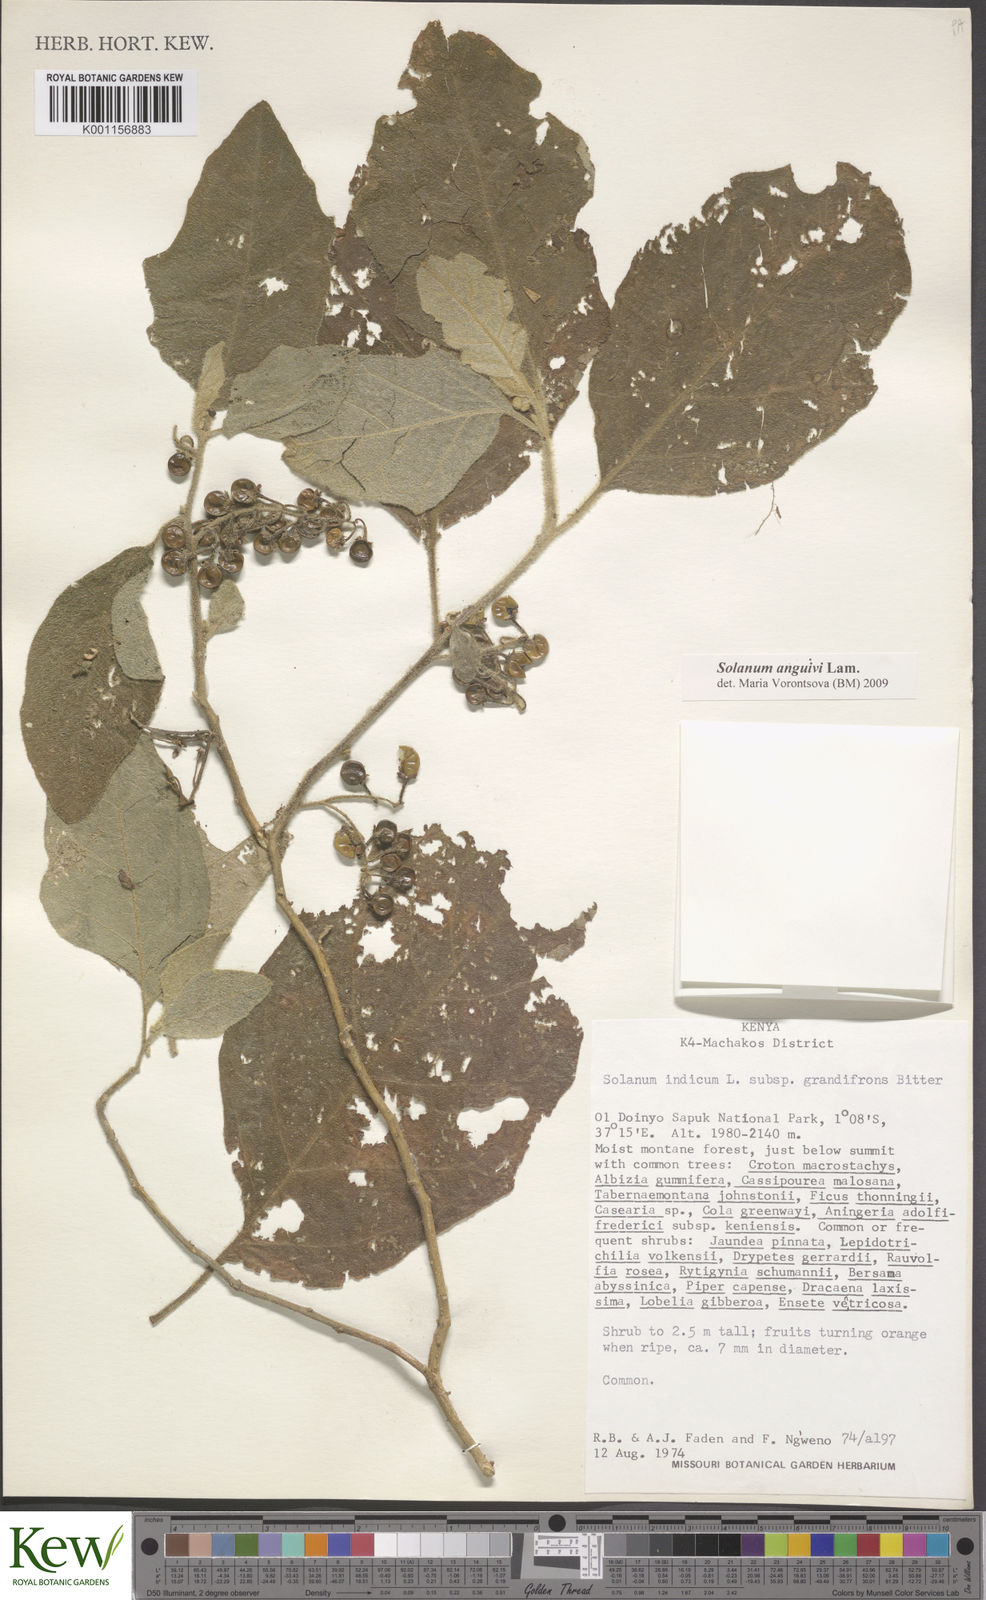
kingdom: Plantae
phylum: Tracheophyta
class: Magnoliopsida
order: Solanales
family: Solanaceae
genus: Solanum
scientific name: Solanum anguivi
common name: Forest bitterberry
